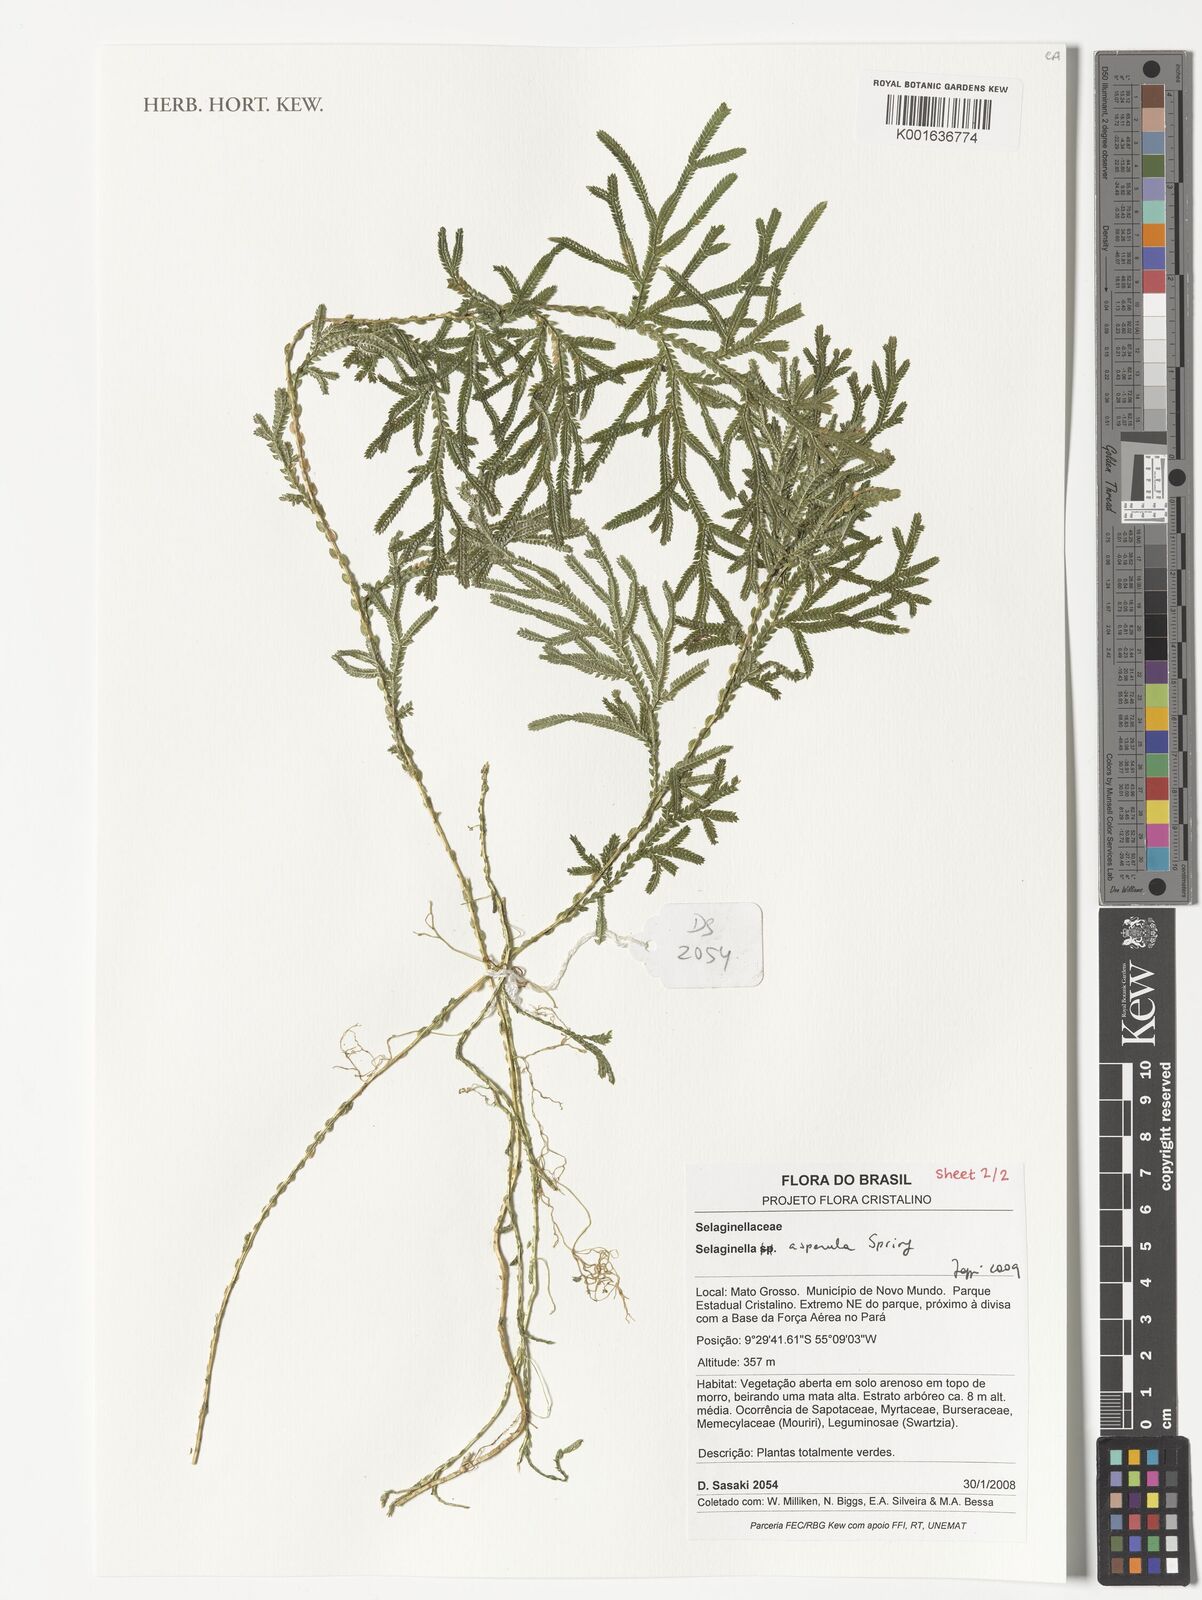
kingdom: Plantae
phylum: Tracheophyta
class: Lycopodiopsida
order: Selaginellales
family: Selaginellaceae
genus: Selaginella
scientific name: Selaginella asperula
